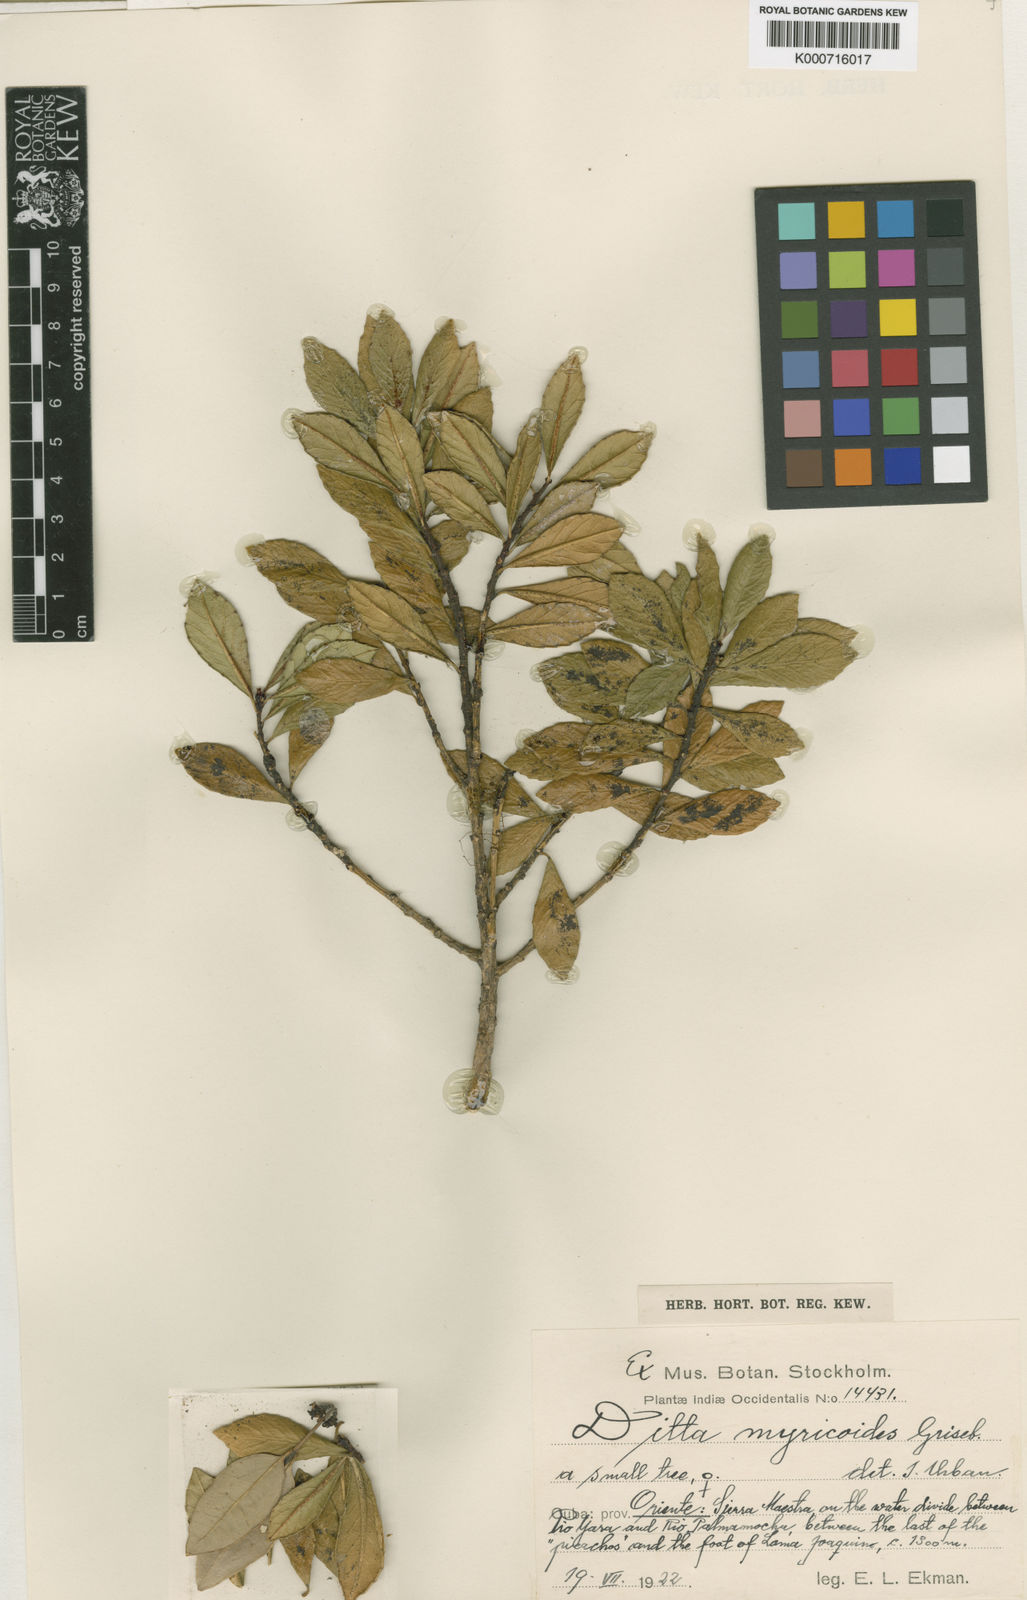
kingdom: Plantae
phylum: Tracheophyta
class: Magnoliopsida
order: Malpighiales
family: Euphorbiaceae
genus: Ditta
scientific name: Ditta myricoides
